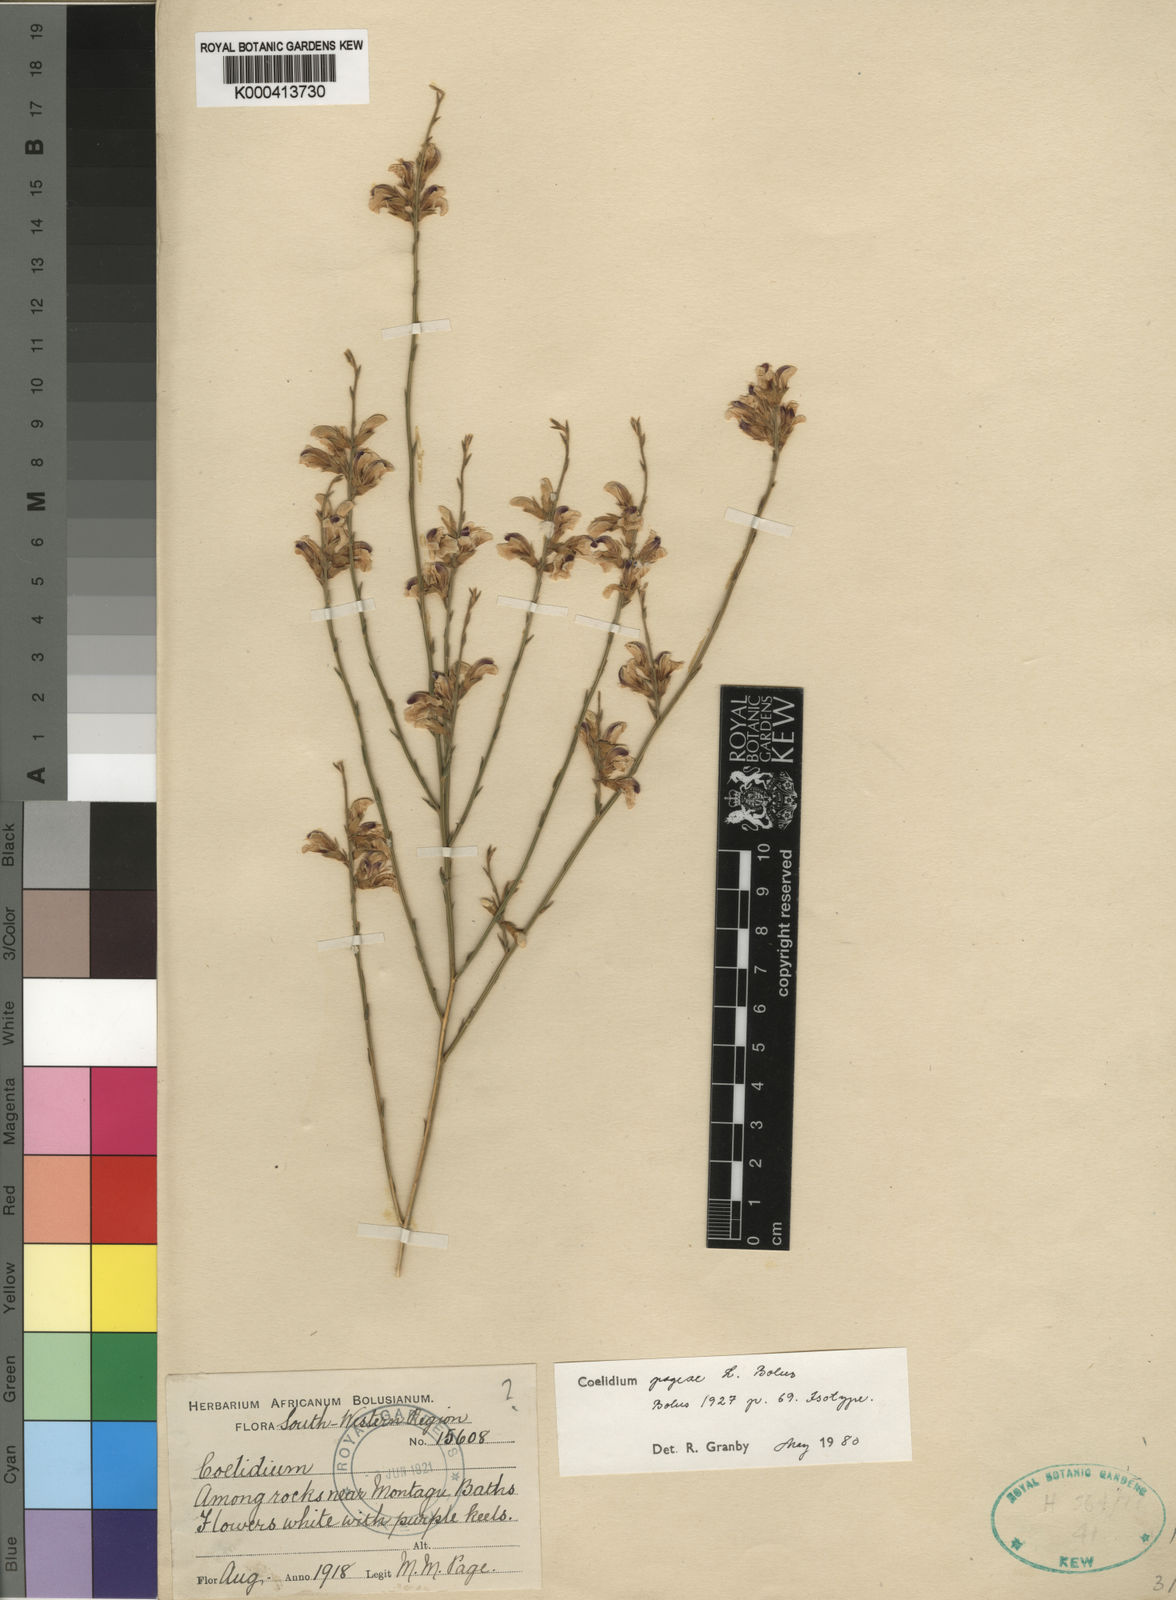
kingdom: Plantae
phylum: Tracheophyta
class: Magnoliopsida
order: Fabales
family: Fabaceae
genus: Amphithalea
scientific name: Amphithalea pageae
